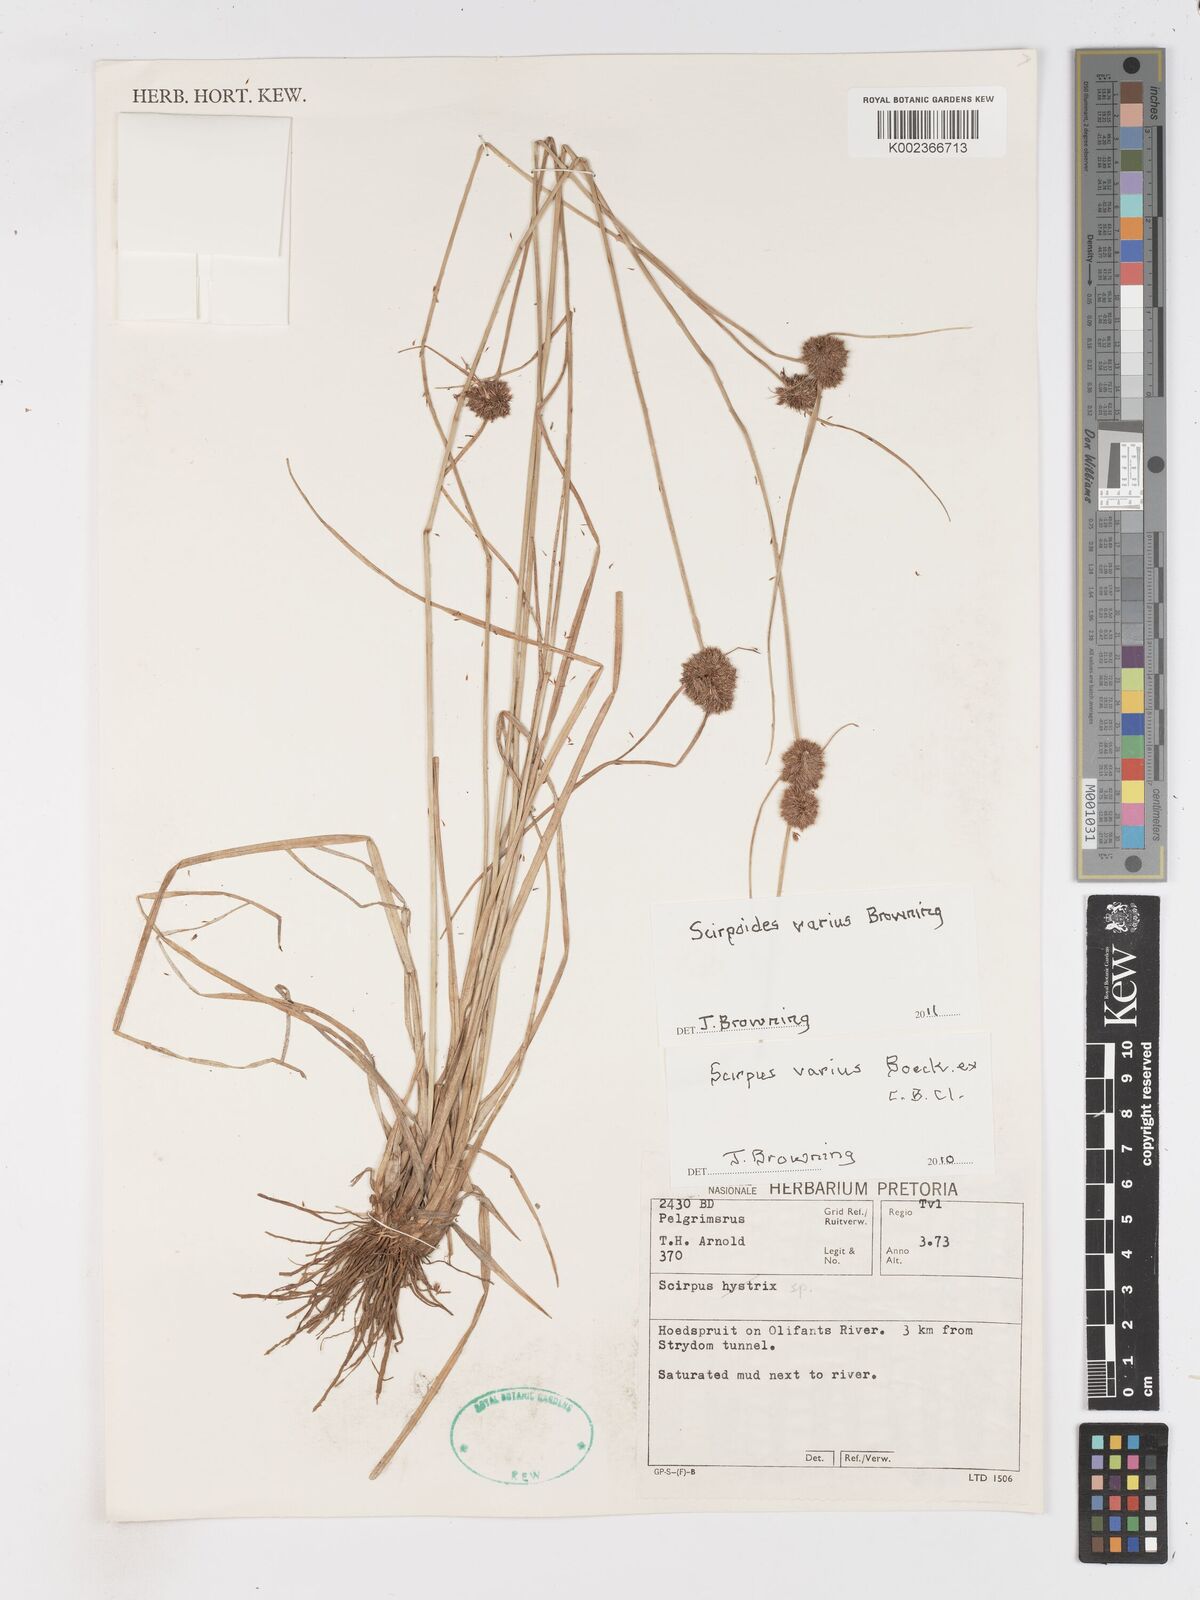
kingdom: Plantae
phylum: Tracheophyta
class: Liliopsida
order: Poales
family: Cyperaceae
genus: Scirpoides
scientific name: Scirpoides varia
